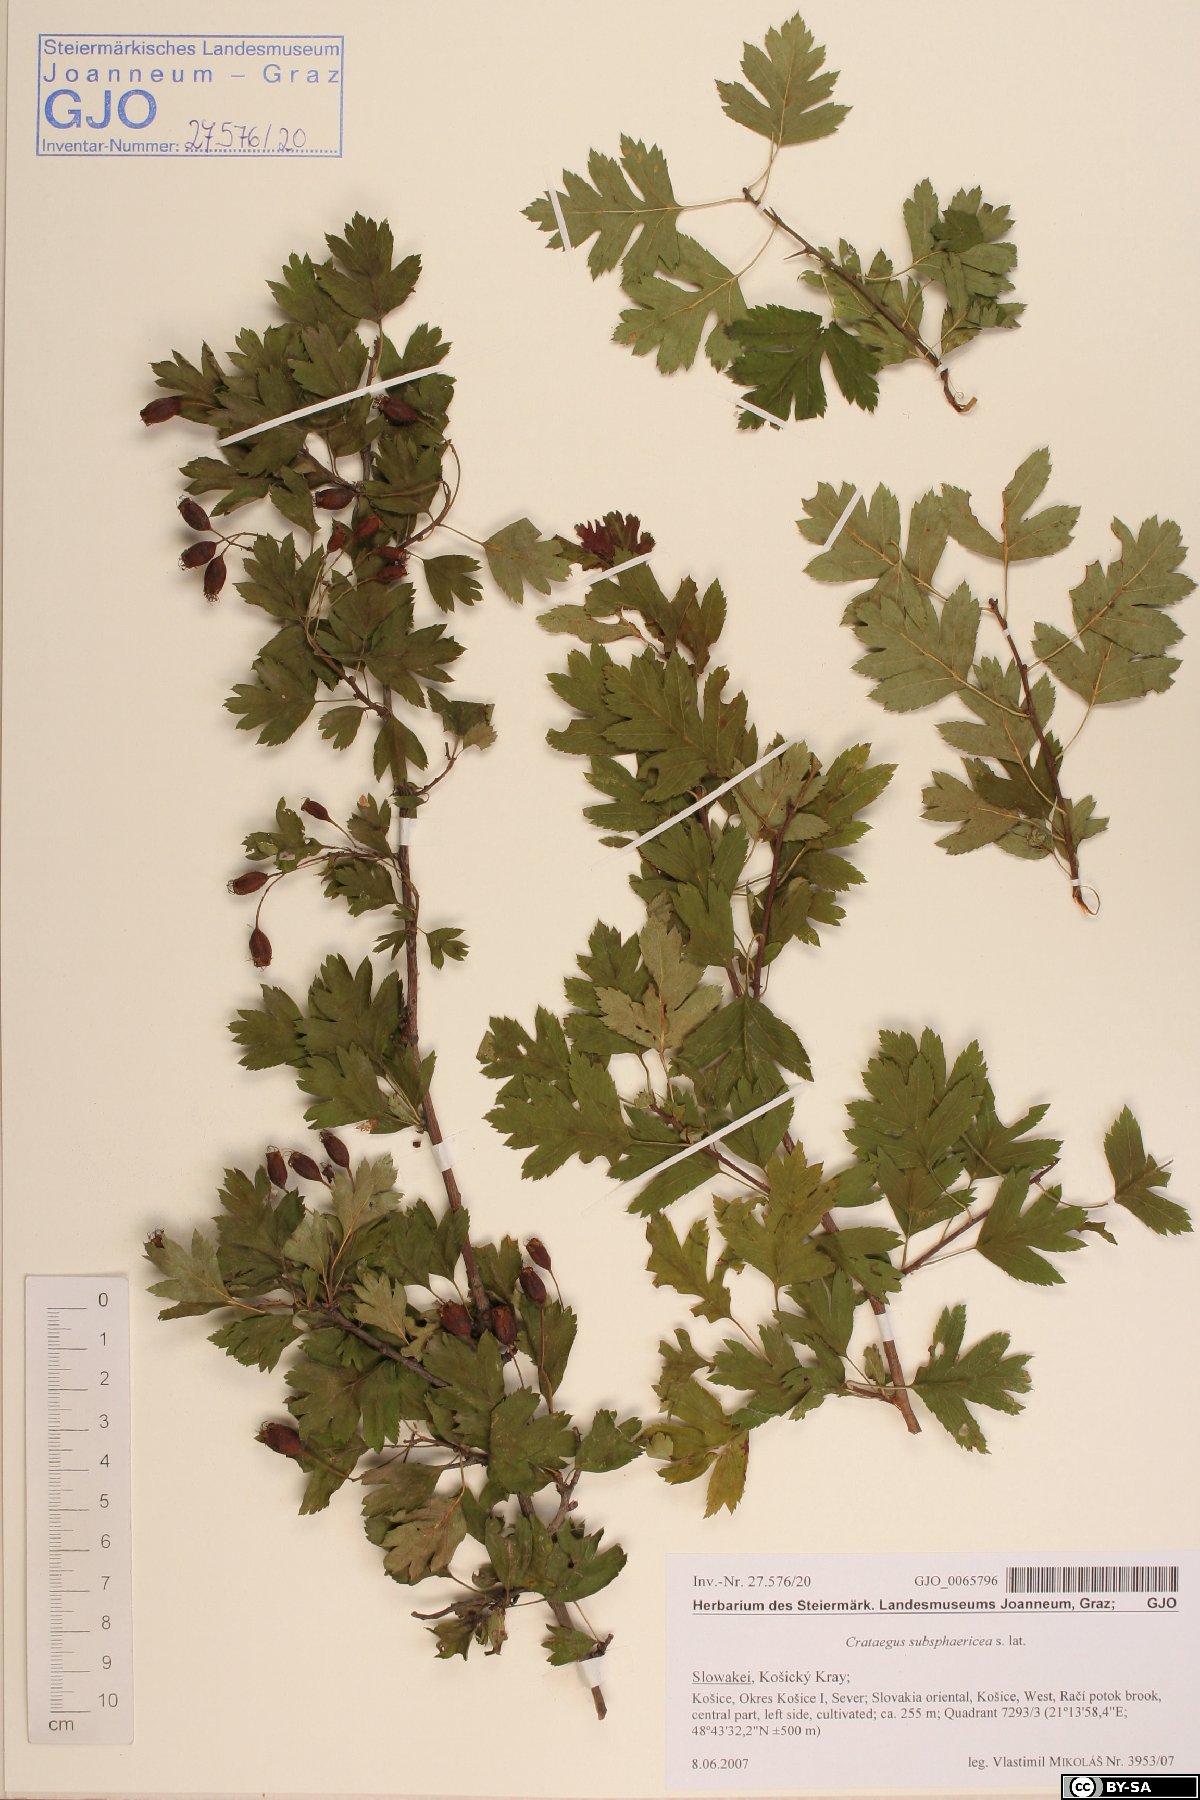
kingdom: Plantae
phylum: Tracheophyta
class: Magnoliopsida
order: Rosales
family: Rosaceae
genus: Crataegus
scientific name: Crataegus subsphaerica
